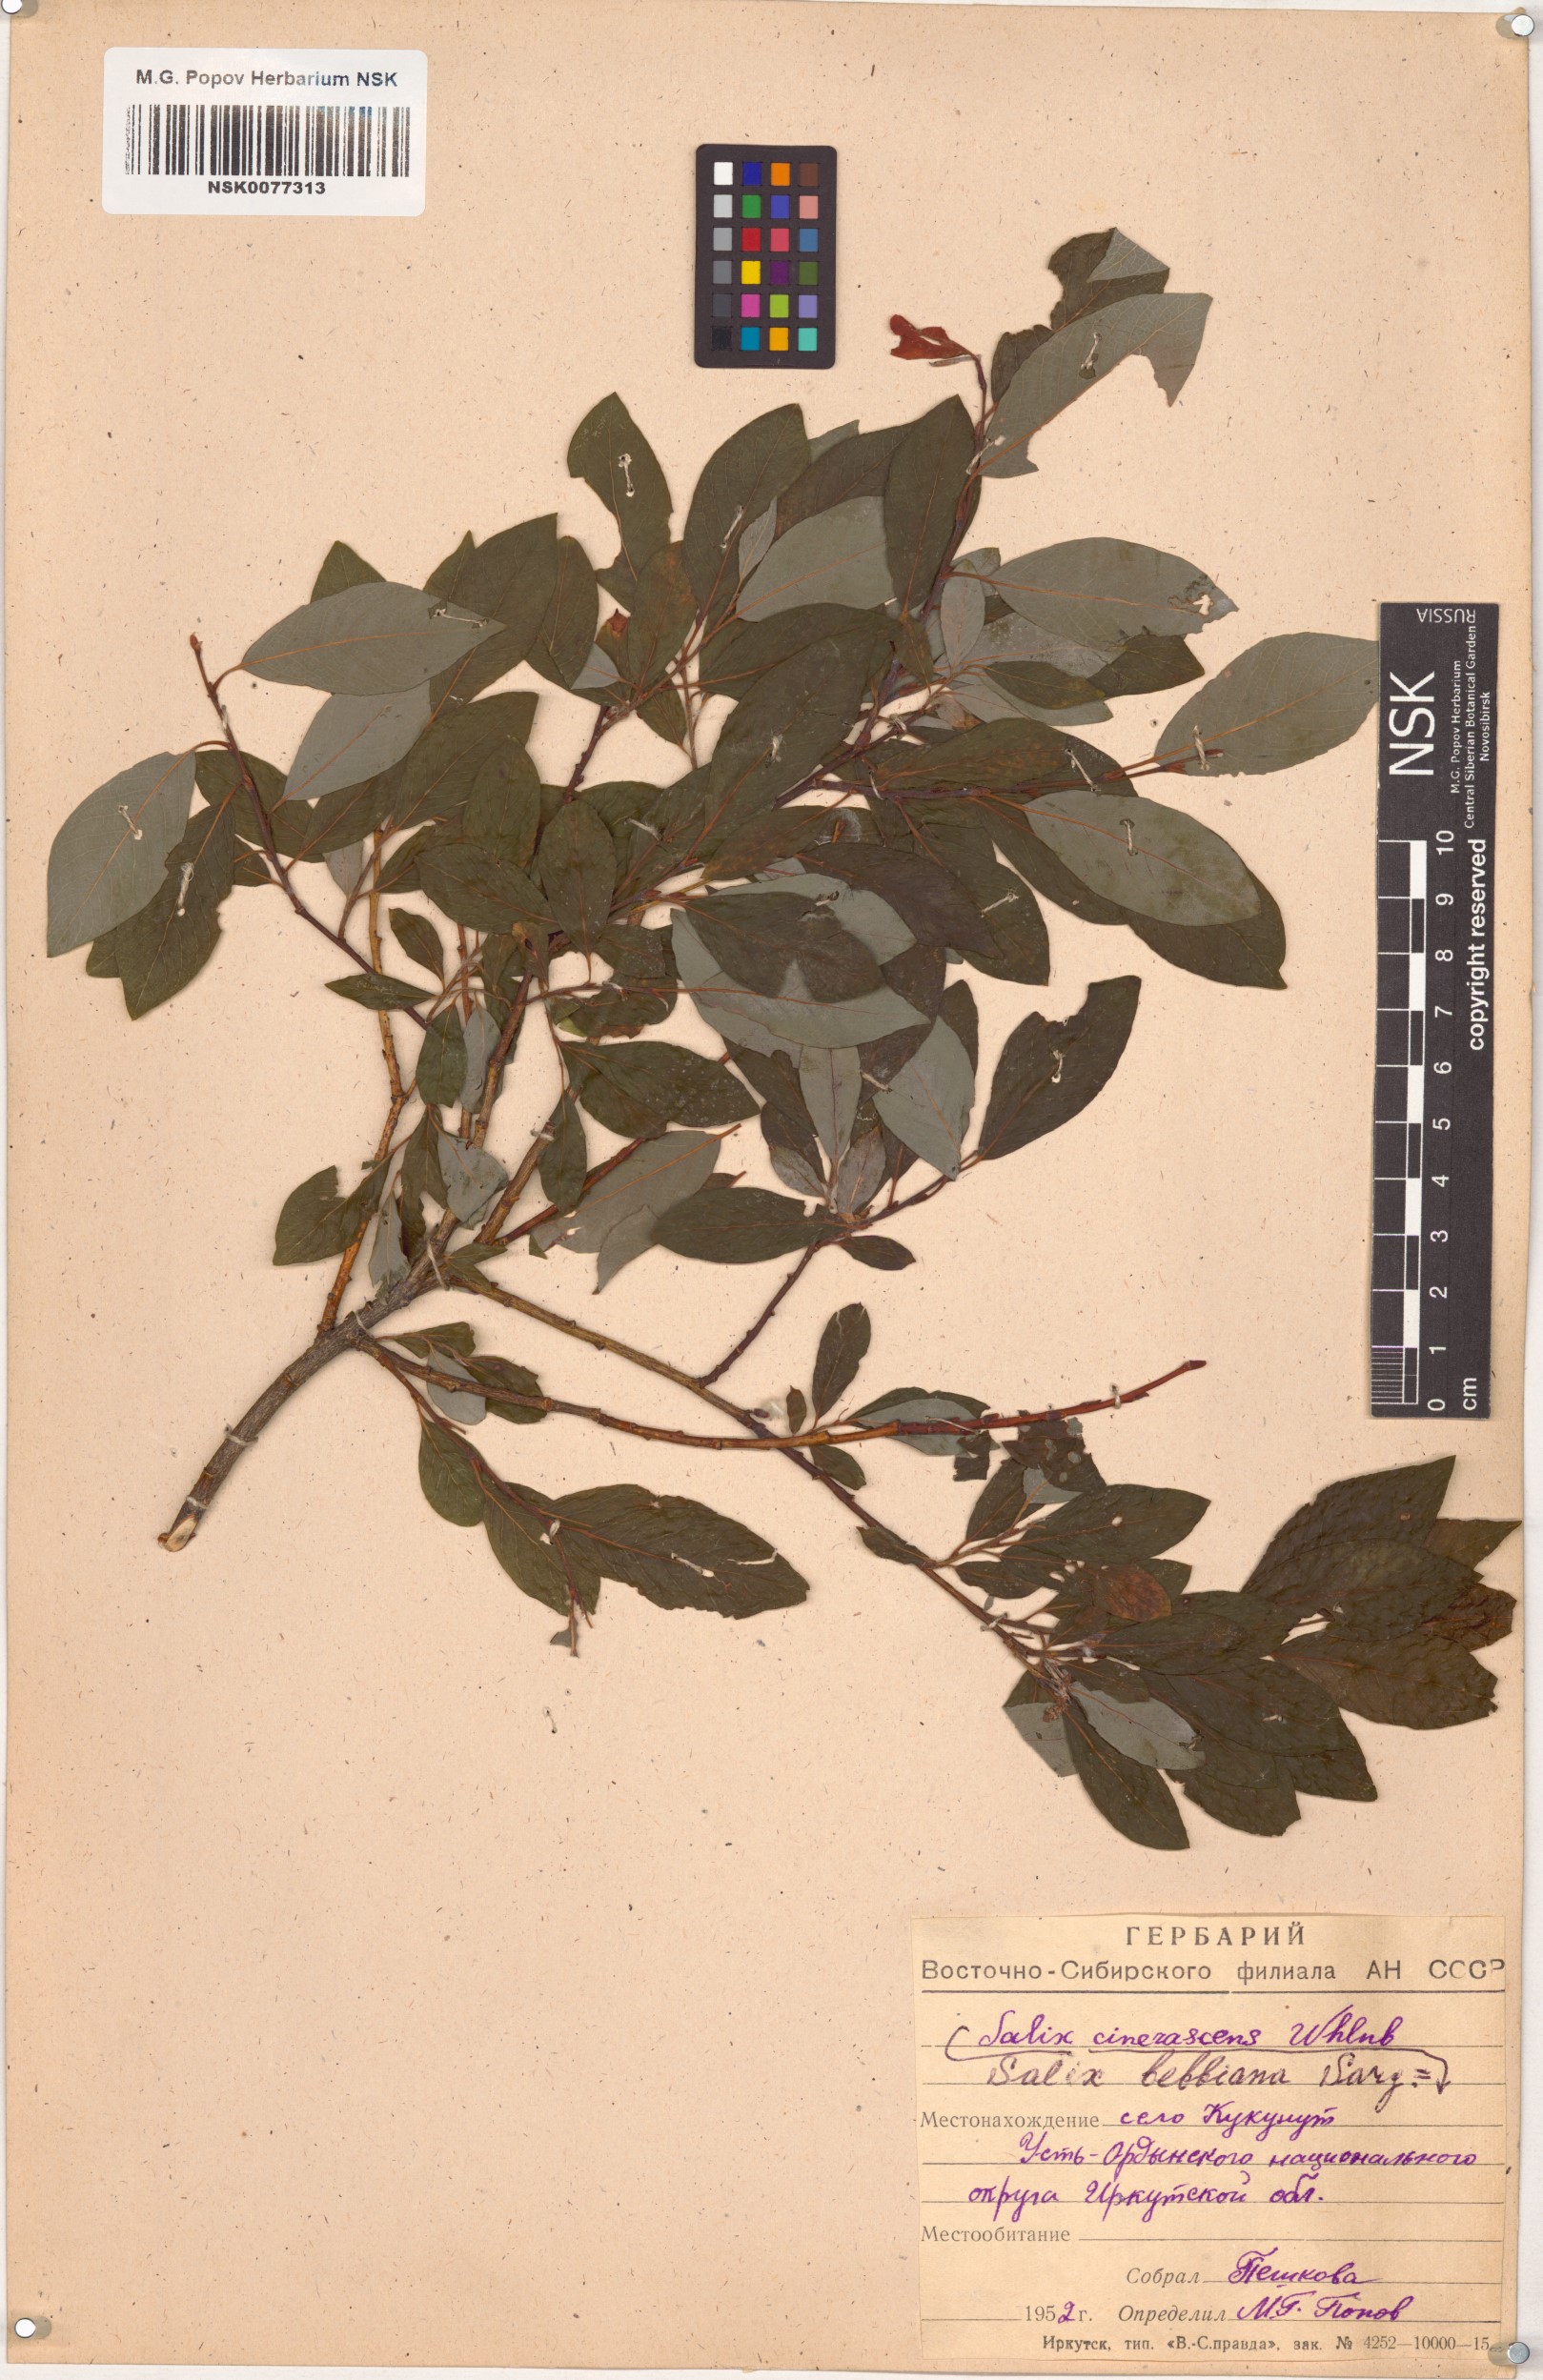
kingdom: Plantae
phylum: Tracheophyta
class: Magnoliopsida
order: Malpighiales
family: Salicaceae
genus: Salix
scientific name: Salix bebbiana
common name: Bebb's willow
